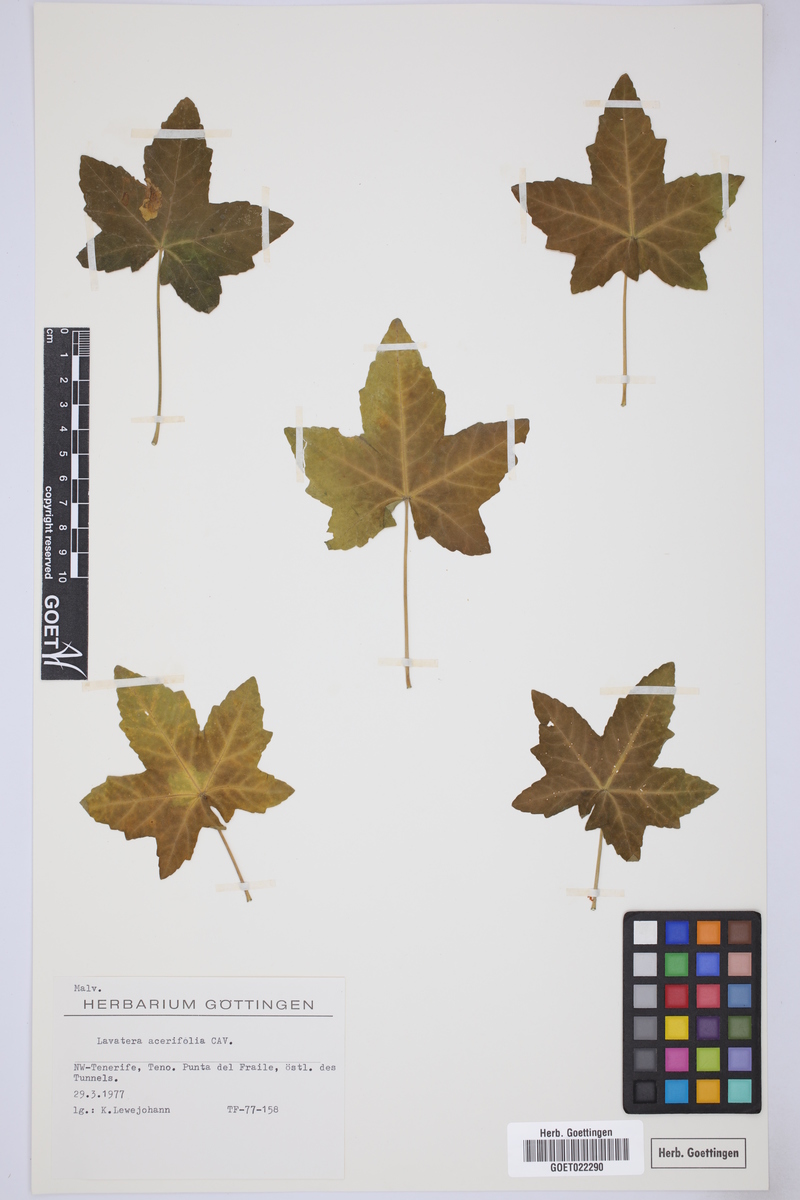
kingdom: Plantae
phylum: Tracheophyta
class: Magnoliopsida
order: Malvales
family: Malvaceae
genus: Malva
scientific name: Malva acerifolia
